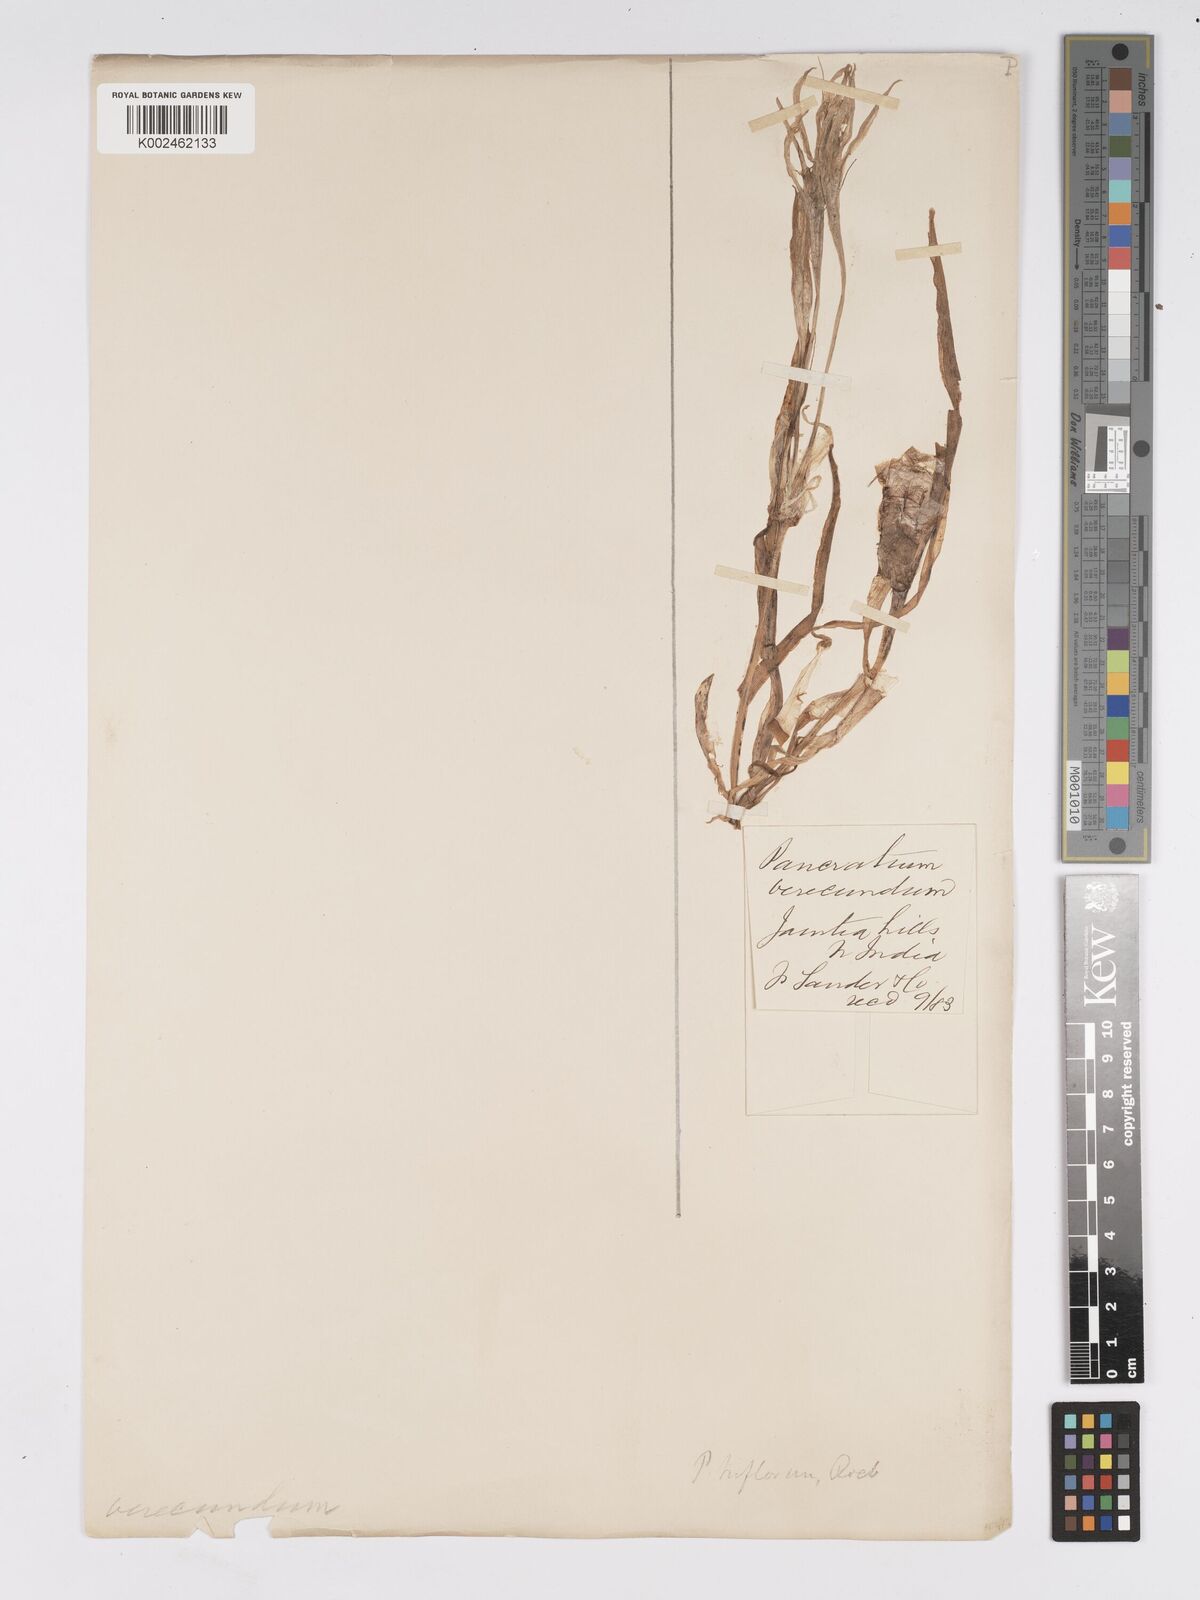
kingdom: Plantae
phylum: Tracheophyta
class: Liliopsida
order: Asparagales
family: Amaryllidaceae
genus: Pancratium
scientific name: Pancratium verecundum
